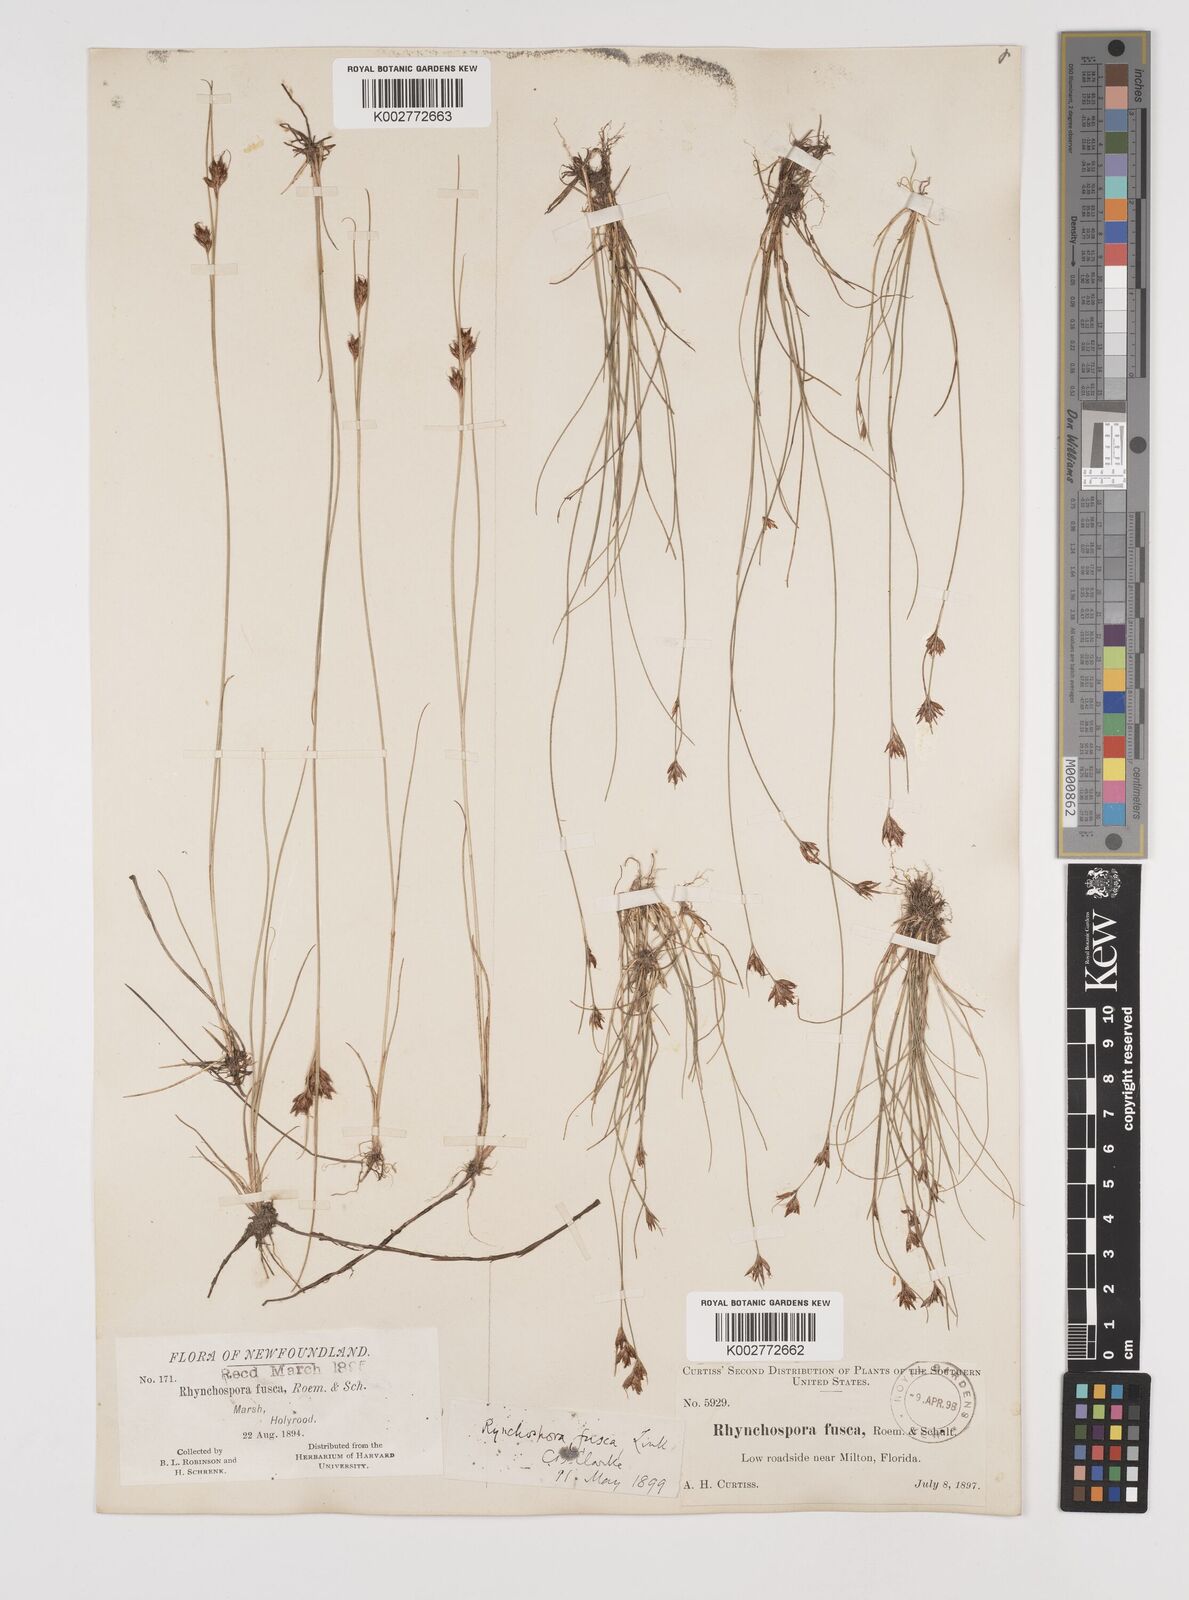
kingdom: Plantae
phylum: Tracheophyta
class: Liliopsida
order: Poales
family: Cyperaceae
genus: Rhynchospora
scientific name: Rhynchospora fusca
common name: Brown beak-sedge
